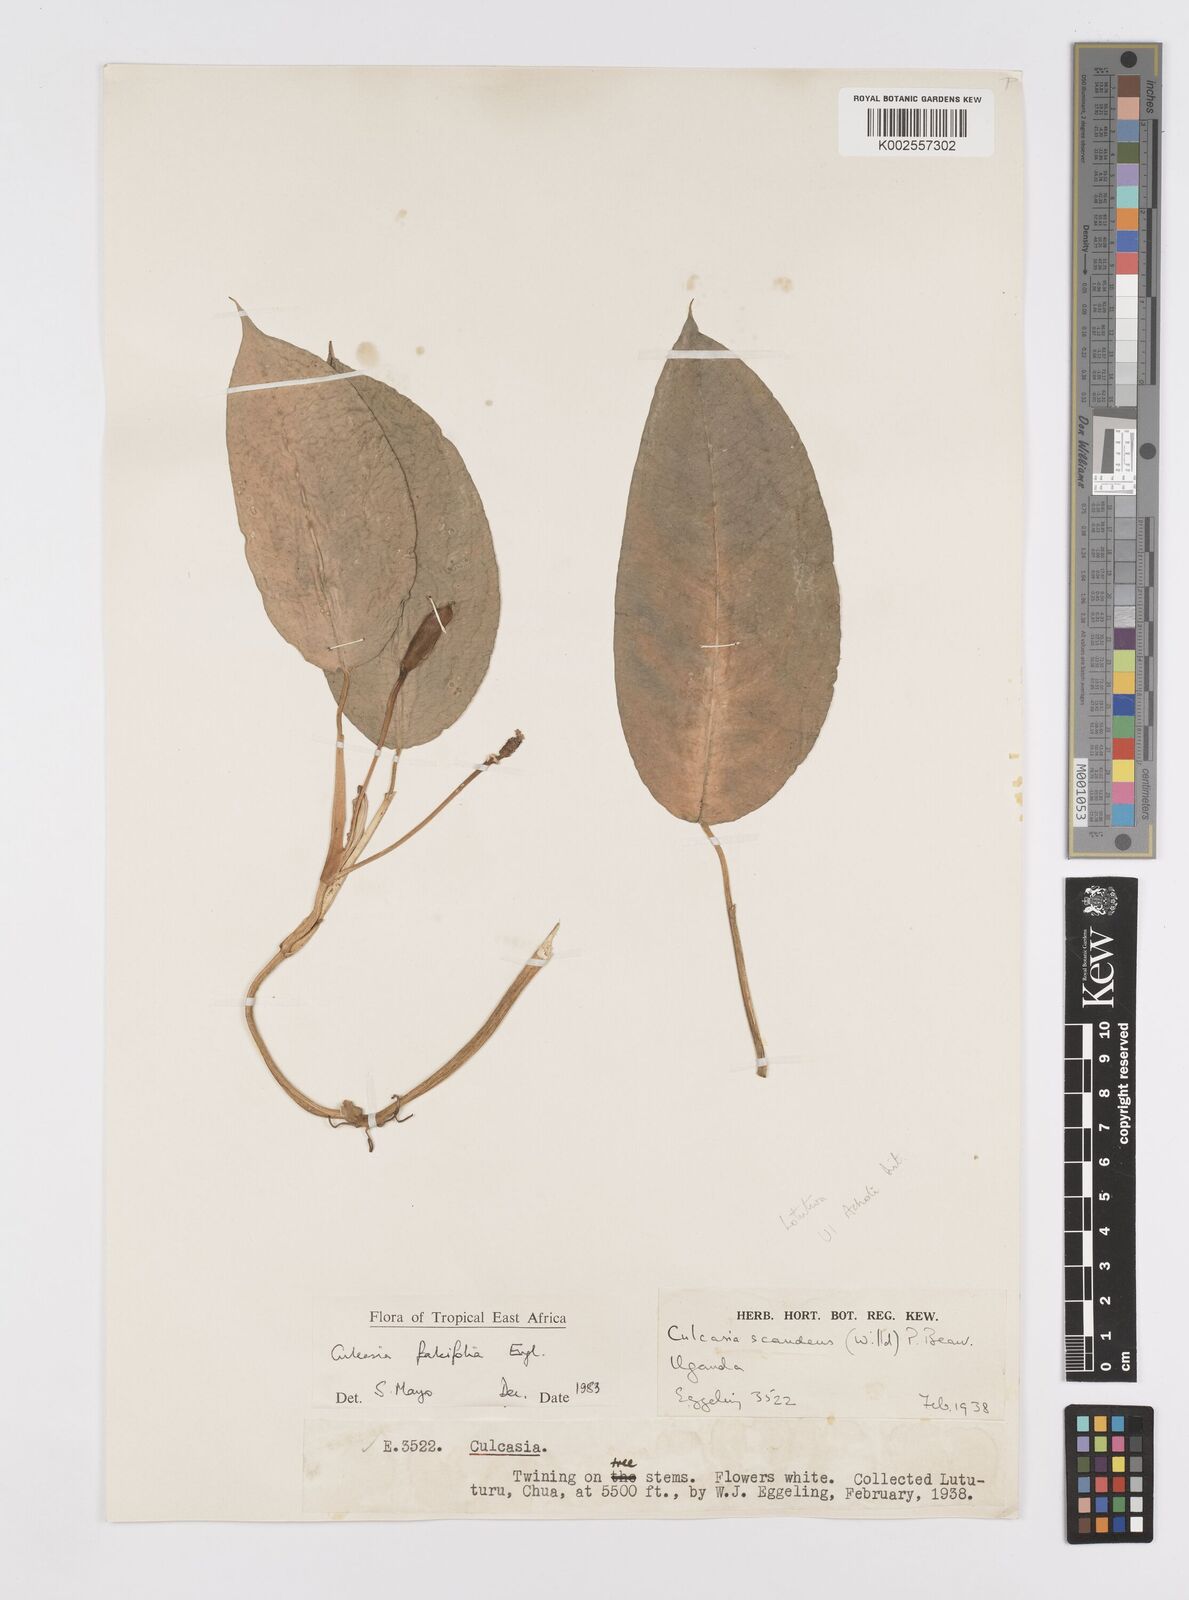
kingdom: Plantae
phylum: Tracheophyta
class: Liliopsida
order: Alismatales
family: Araceae
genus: Culcasia
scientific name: Culcasia falcifolia
